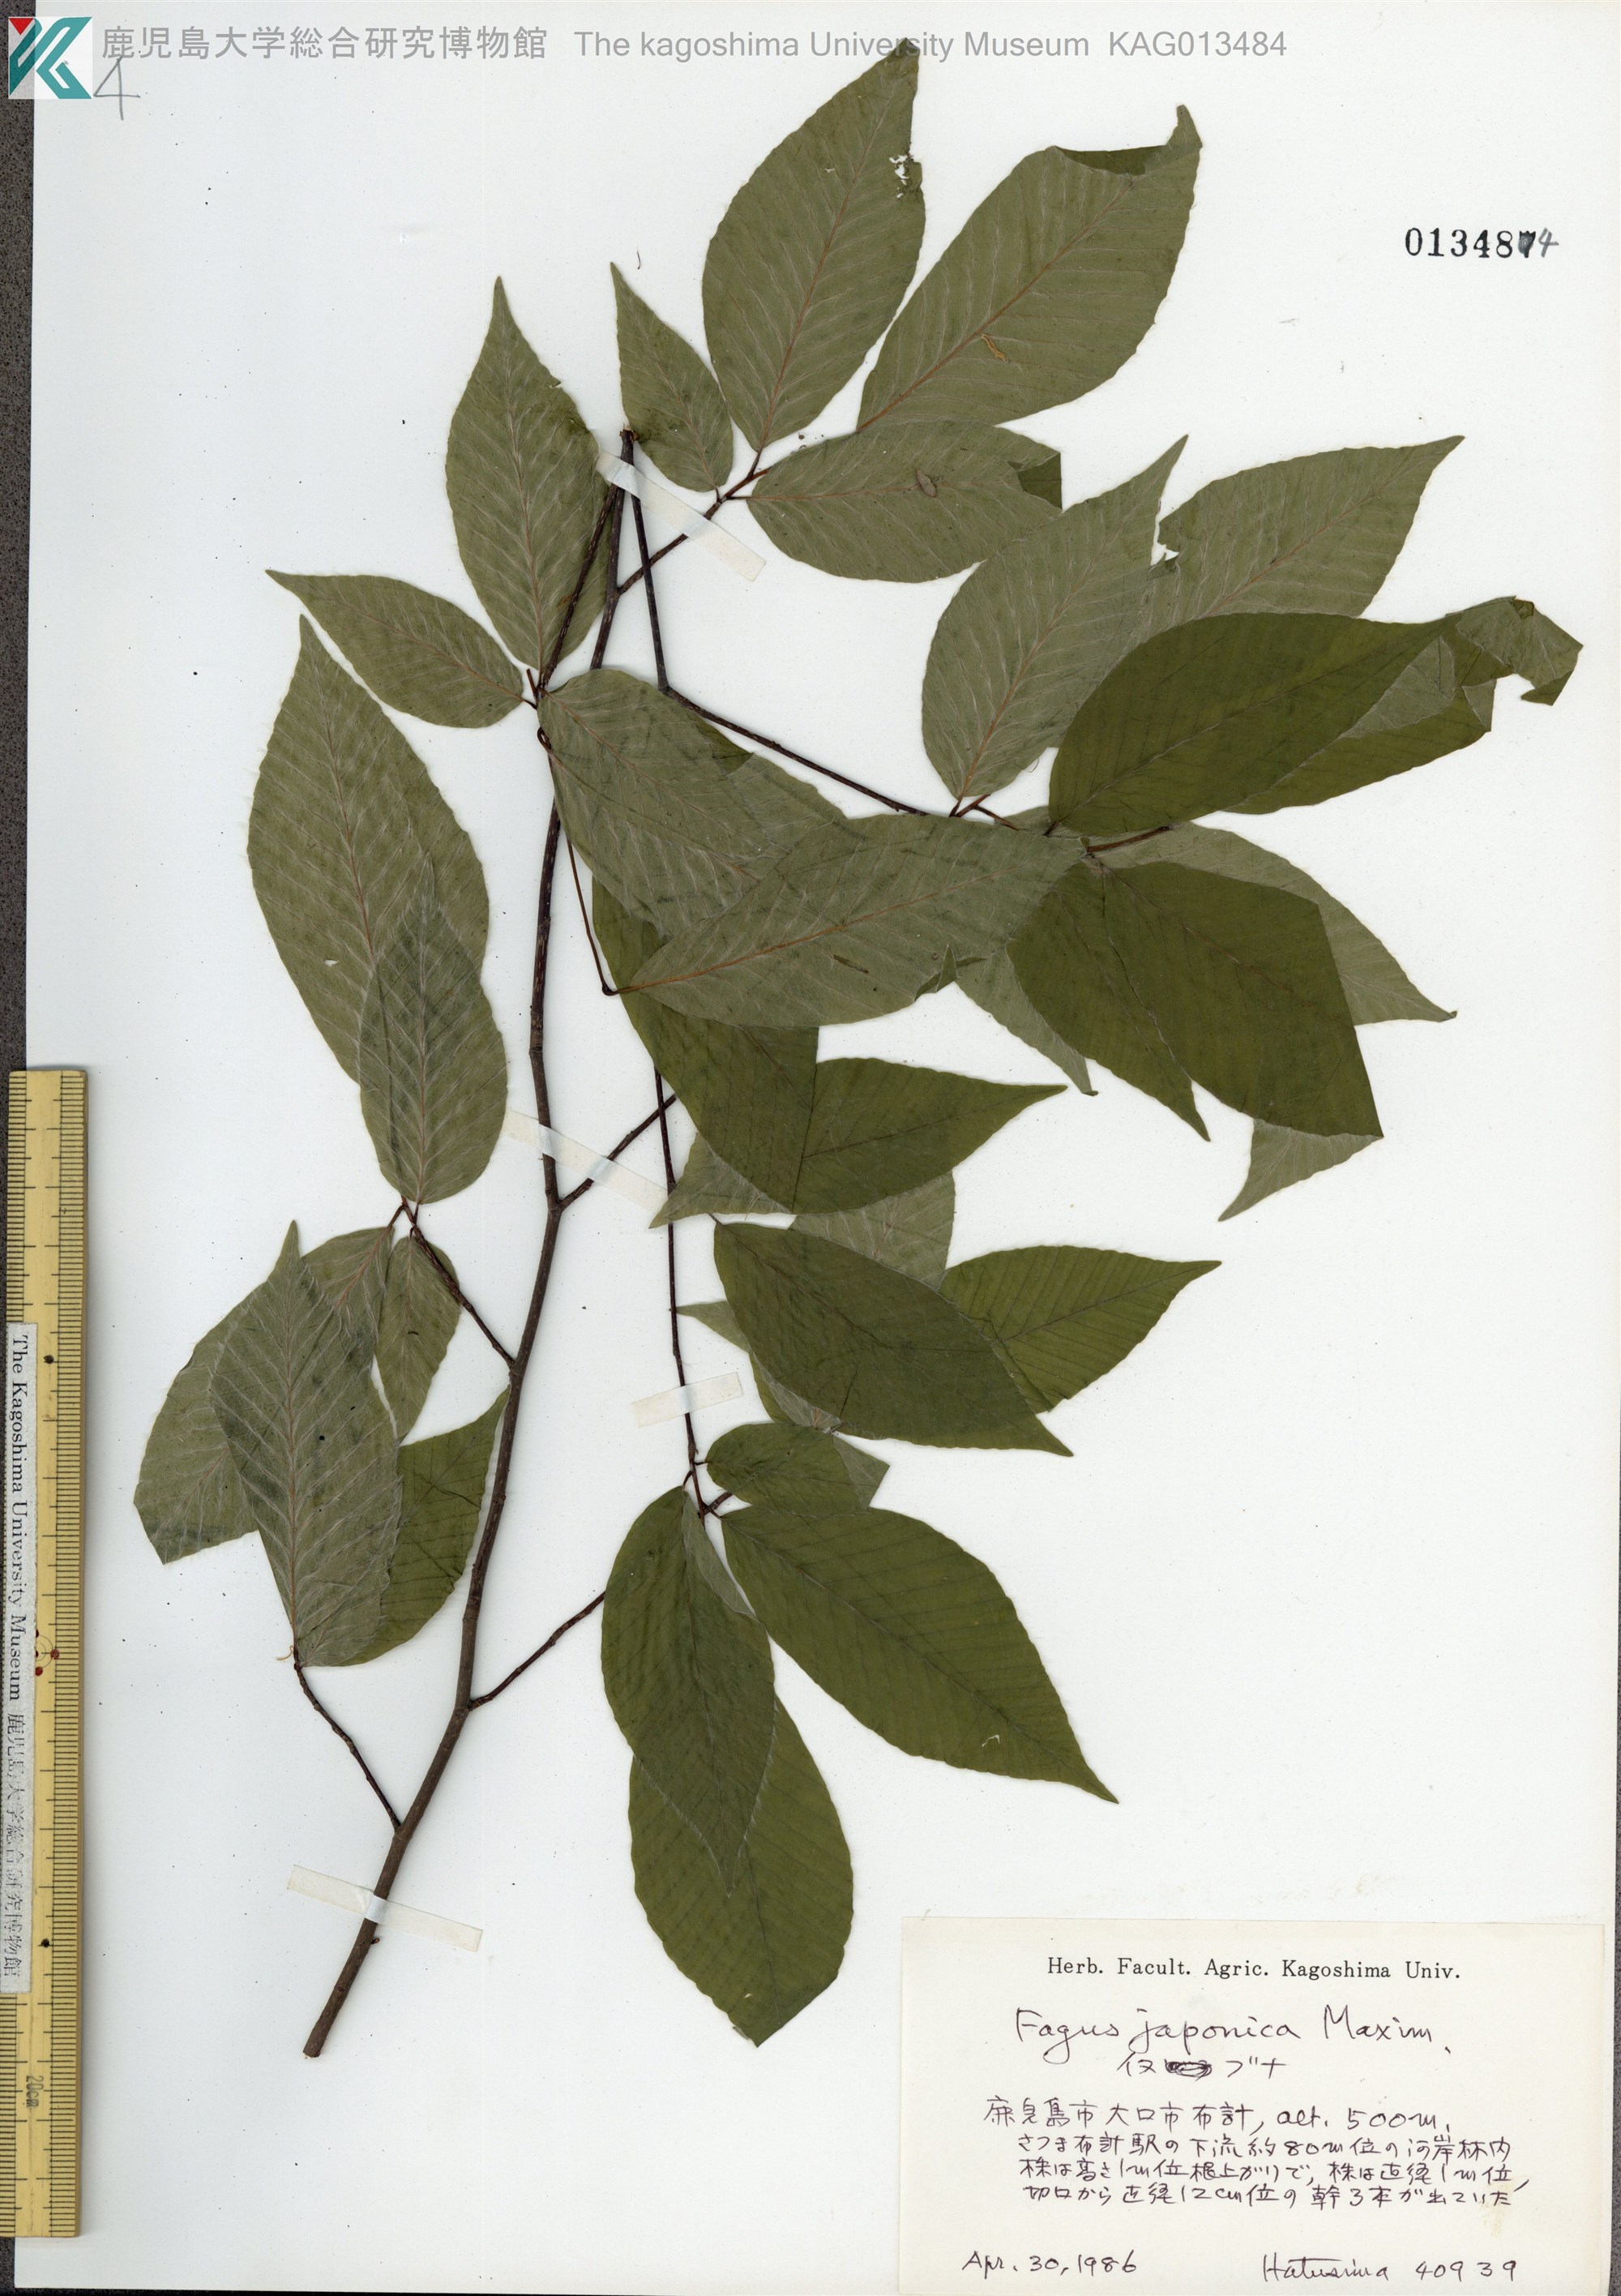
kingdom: Plantae
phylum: Tracheophyta
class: Magnoliopsida
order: Fagales
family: Fagaceae
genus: Fagus
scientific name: Fagus japonica
